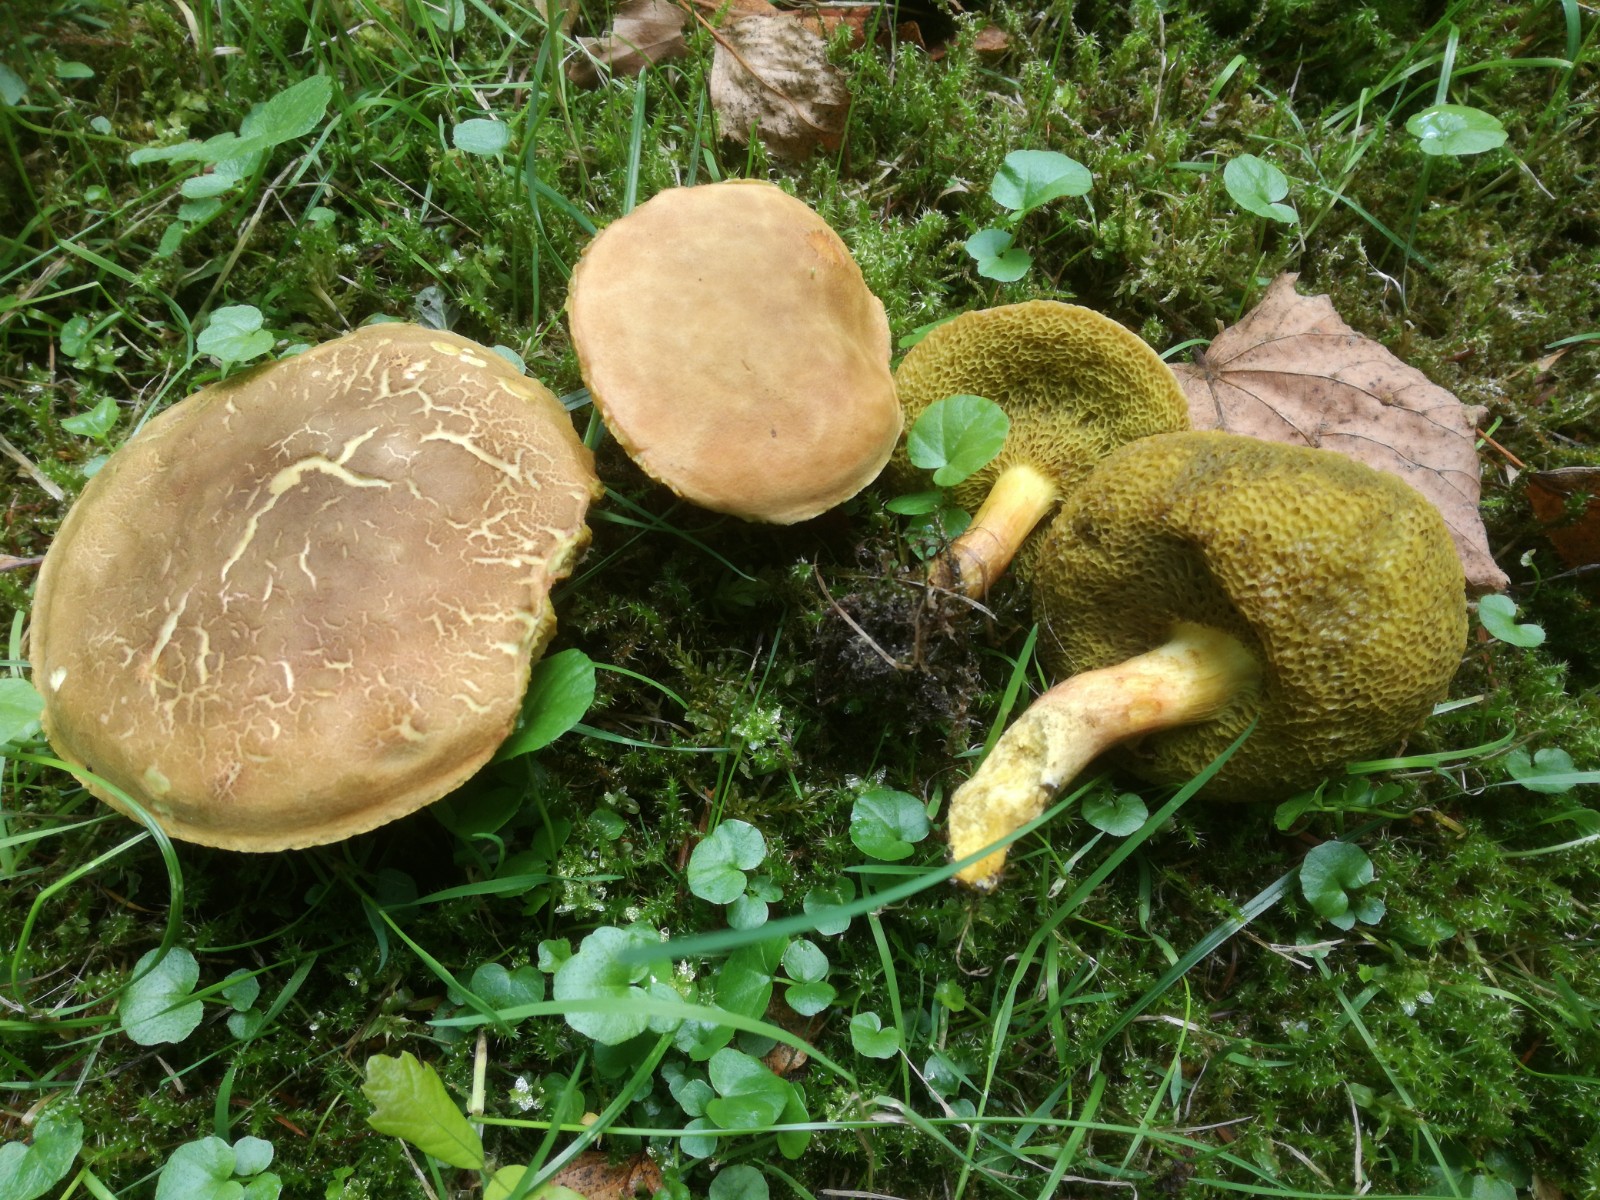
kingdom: Fungi
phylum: Basidiomycota
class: Agaricomycetes
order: Boletales
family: Boletaceae
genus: Hortiboletus
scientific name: Hortiboletus engelii
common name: fersken-rørhat
